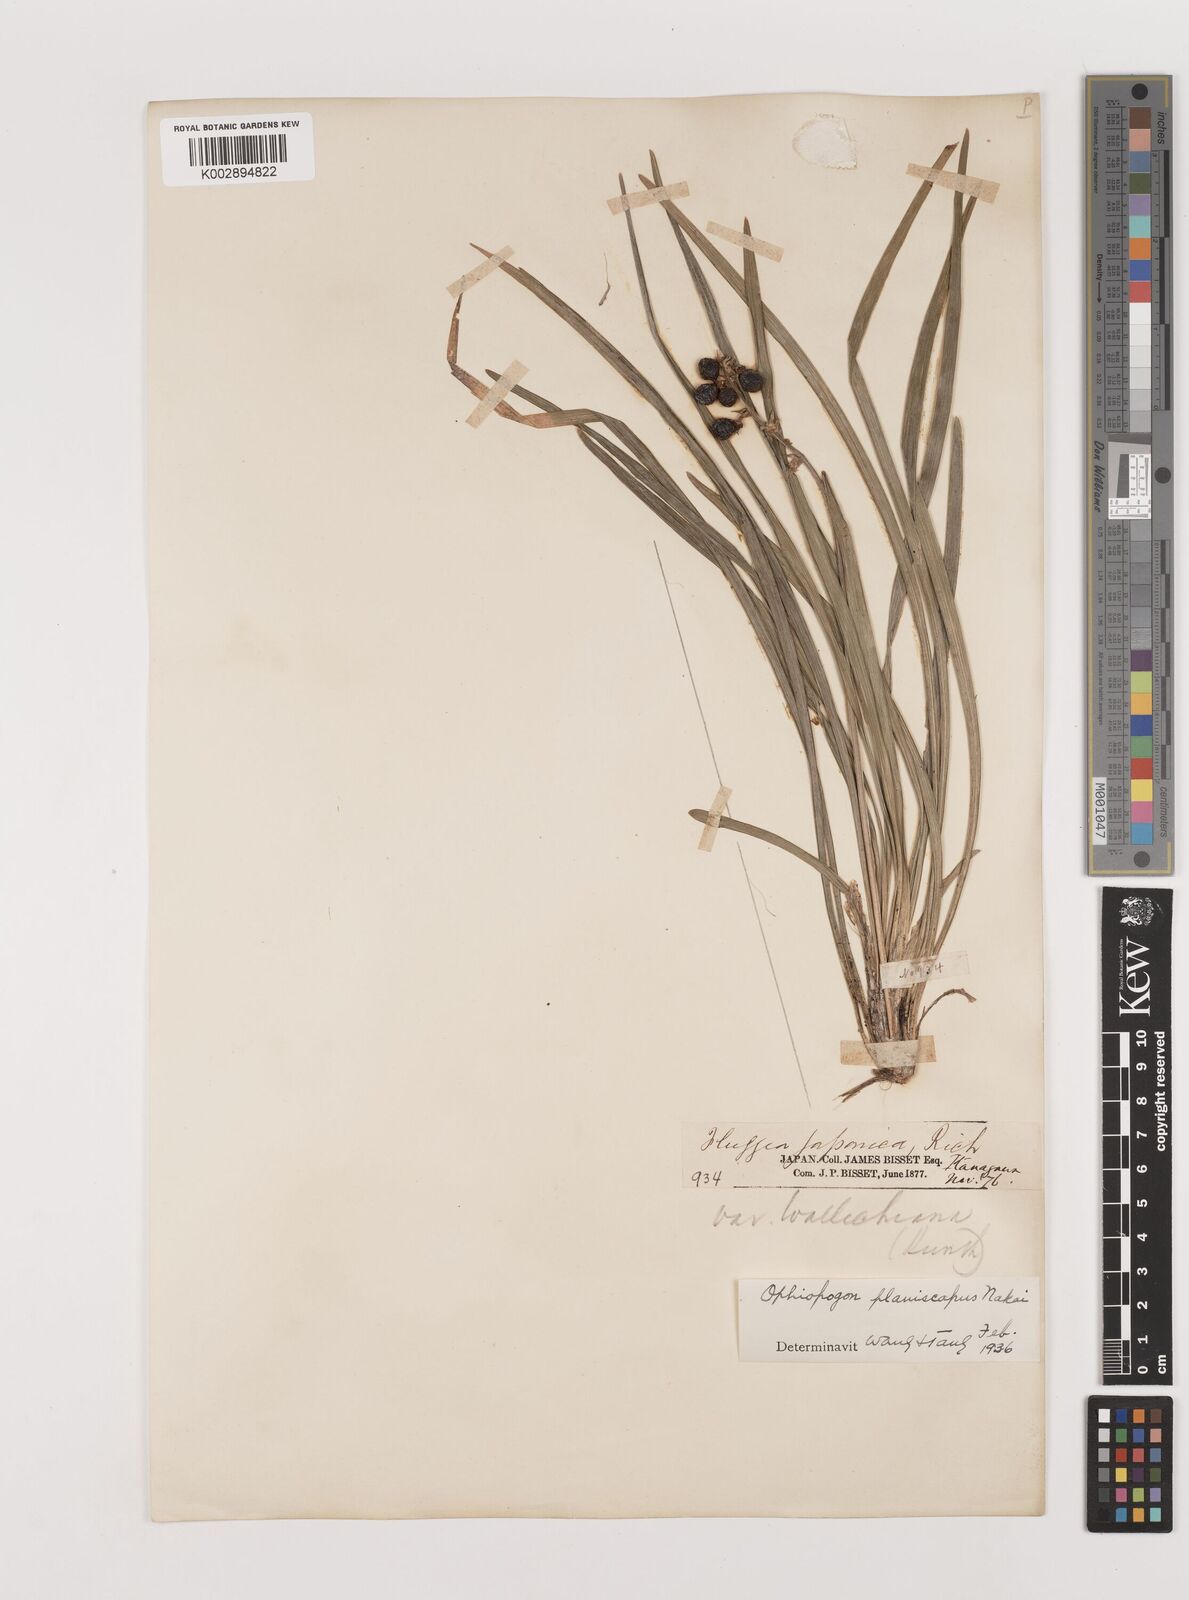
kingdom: Plantae
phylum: Tracheophyta
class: Liliopsida
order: Asparagales
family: Asparagaceae
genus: Ophiopogon
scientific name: Ophiopogon planiscapus
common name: Black mondo
